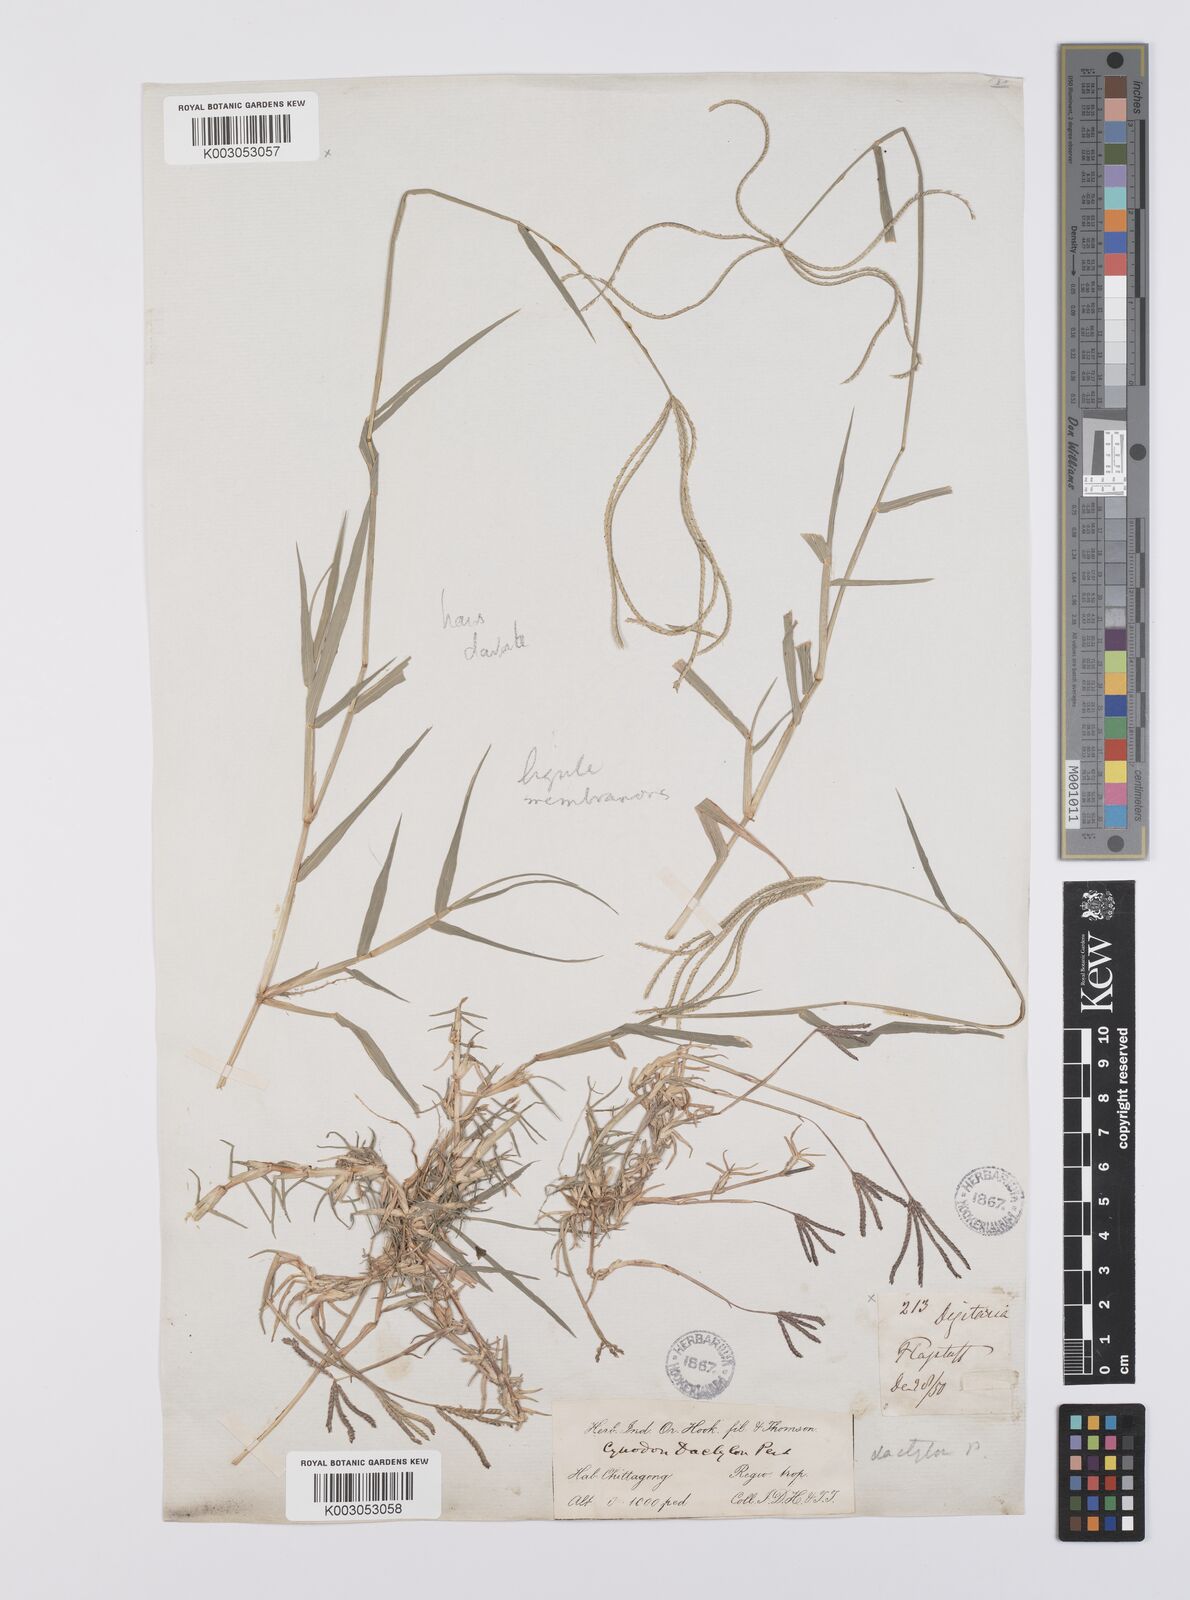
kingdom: Plantae
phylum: Tracheophyta
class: Liliopsida
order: Poales
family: Poaceae
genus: Cynodon
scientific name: Cynodon radiatus
